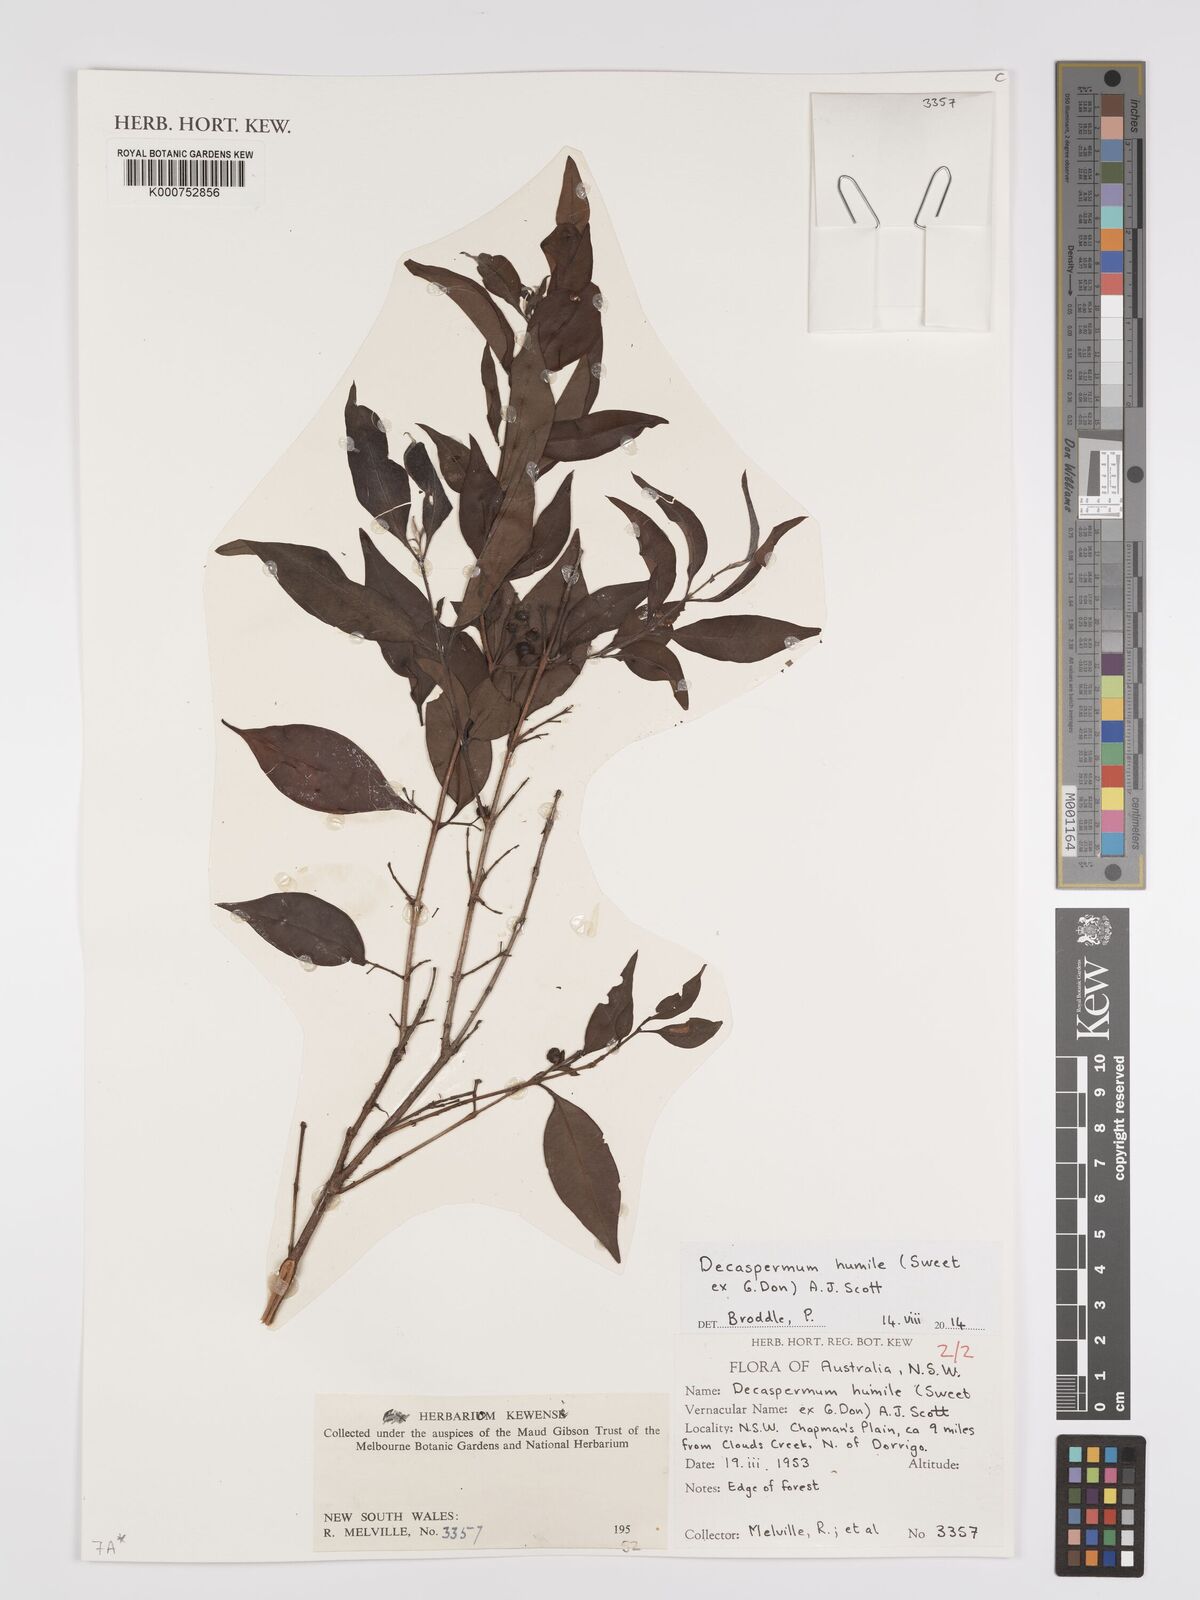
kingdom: Plantae
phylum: Tracheophyta
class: Magnoliopsida
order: Myrtales
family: Myrtaceae
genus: Decaspermum
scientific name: Decaspermum humile
